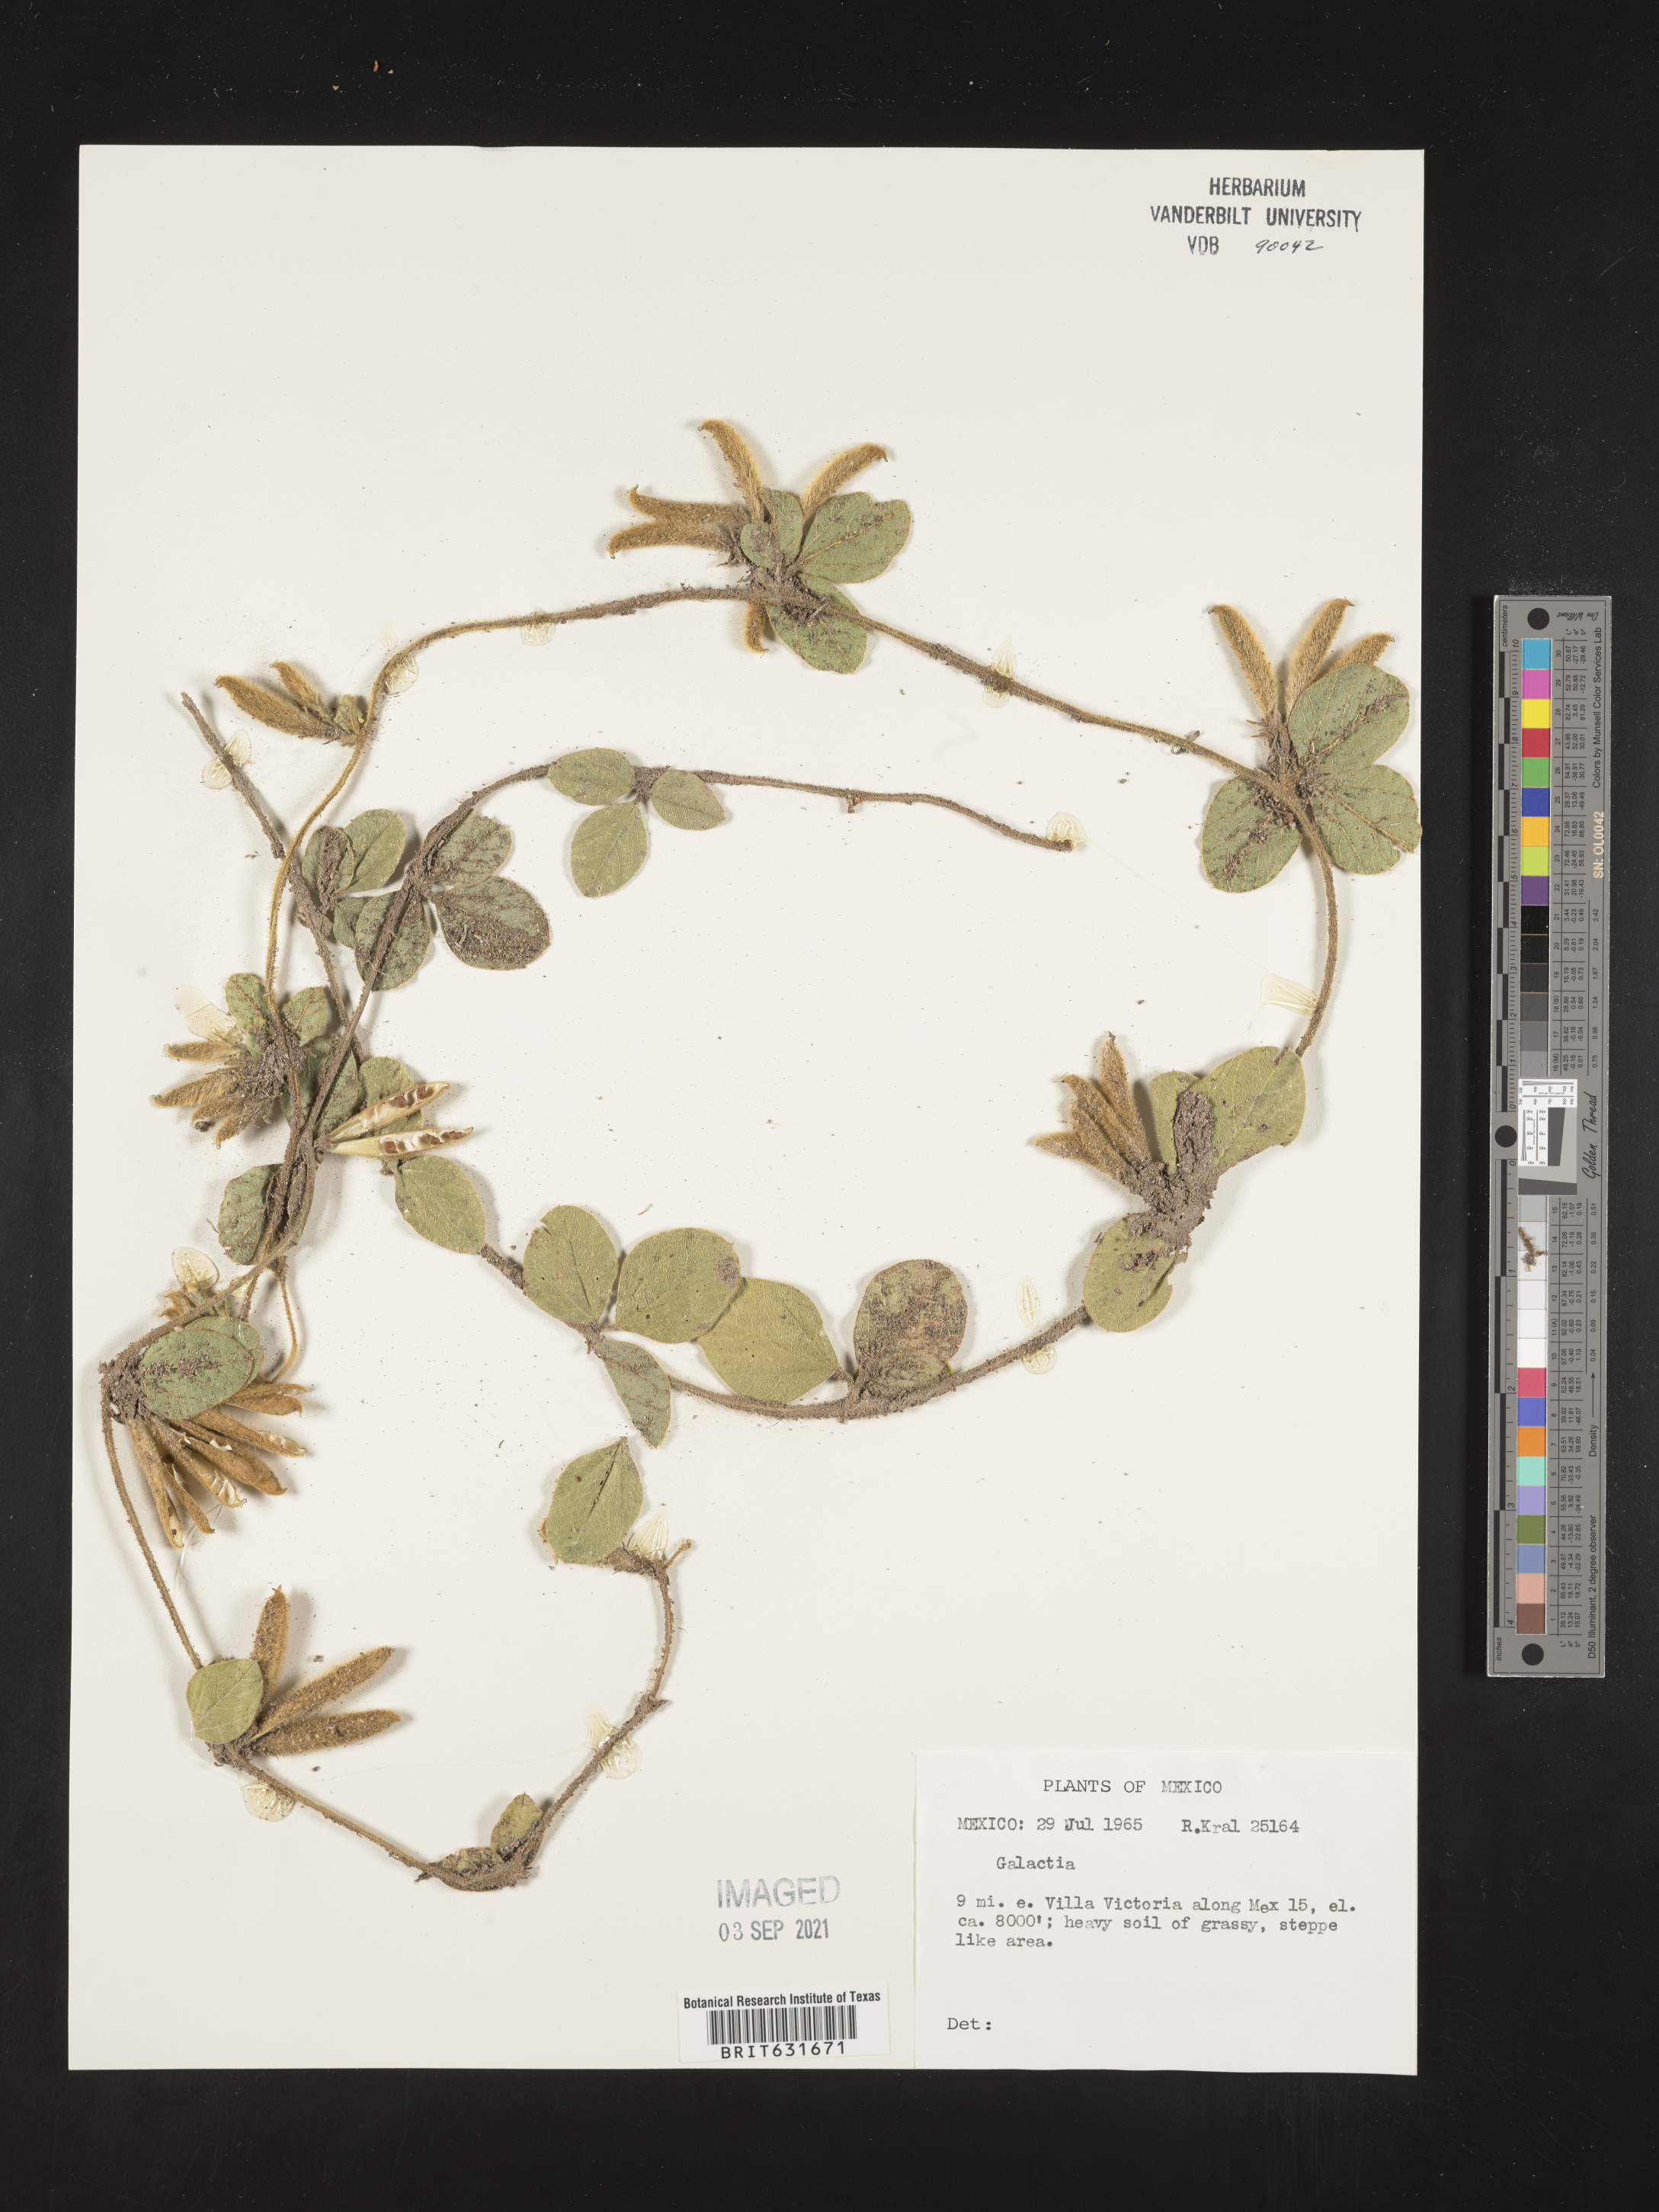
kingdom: Plantae
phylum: Tracheophyta
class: Magnoliopsida
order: Fabales
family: Fabaceae
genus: Galactia
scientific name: Galactia
